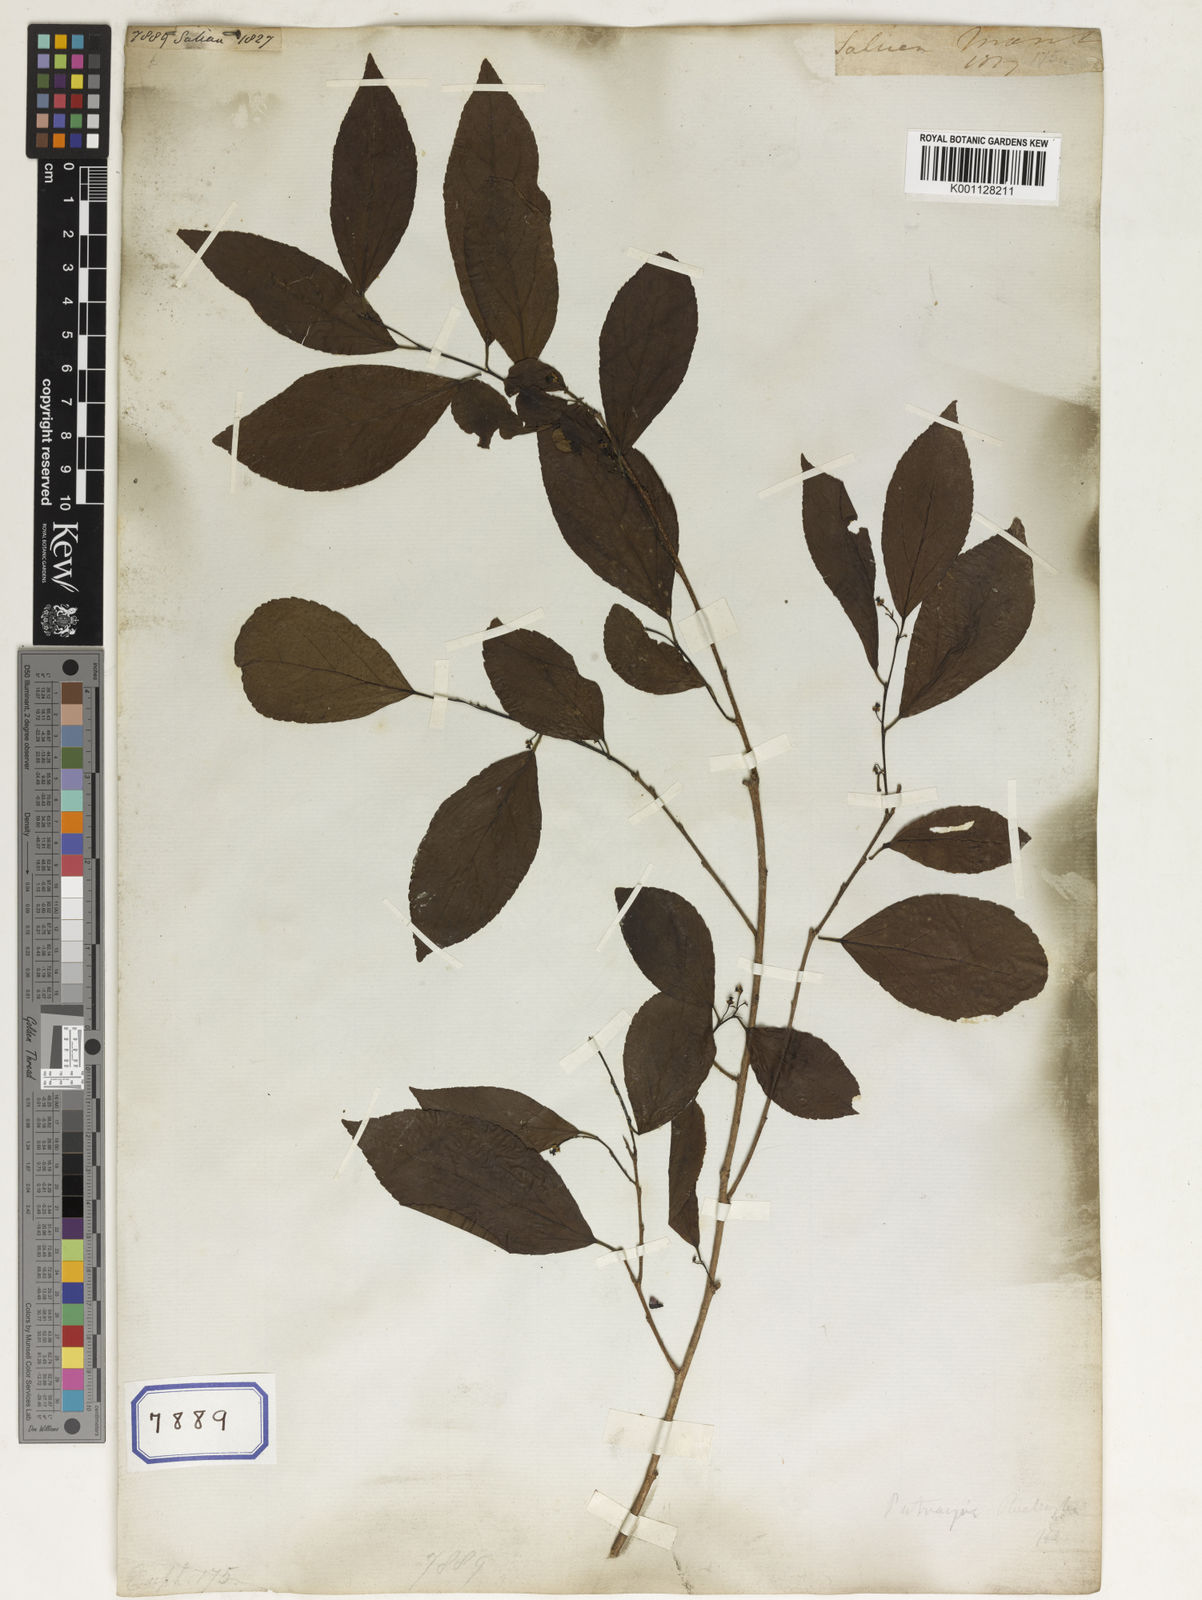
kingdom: Plantae
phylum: Tracheophyta
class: Magnoliopsida
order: Malpighiales
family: Euphorbiaceae
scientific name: Euphorbiaceae
